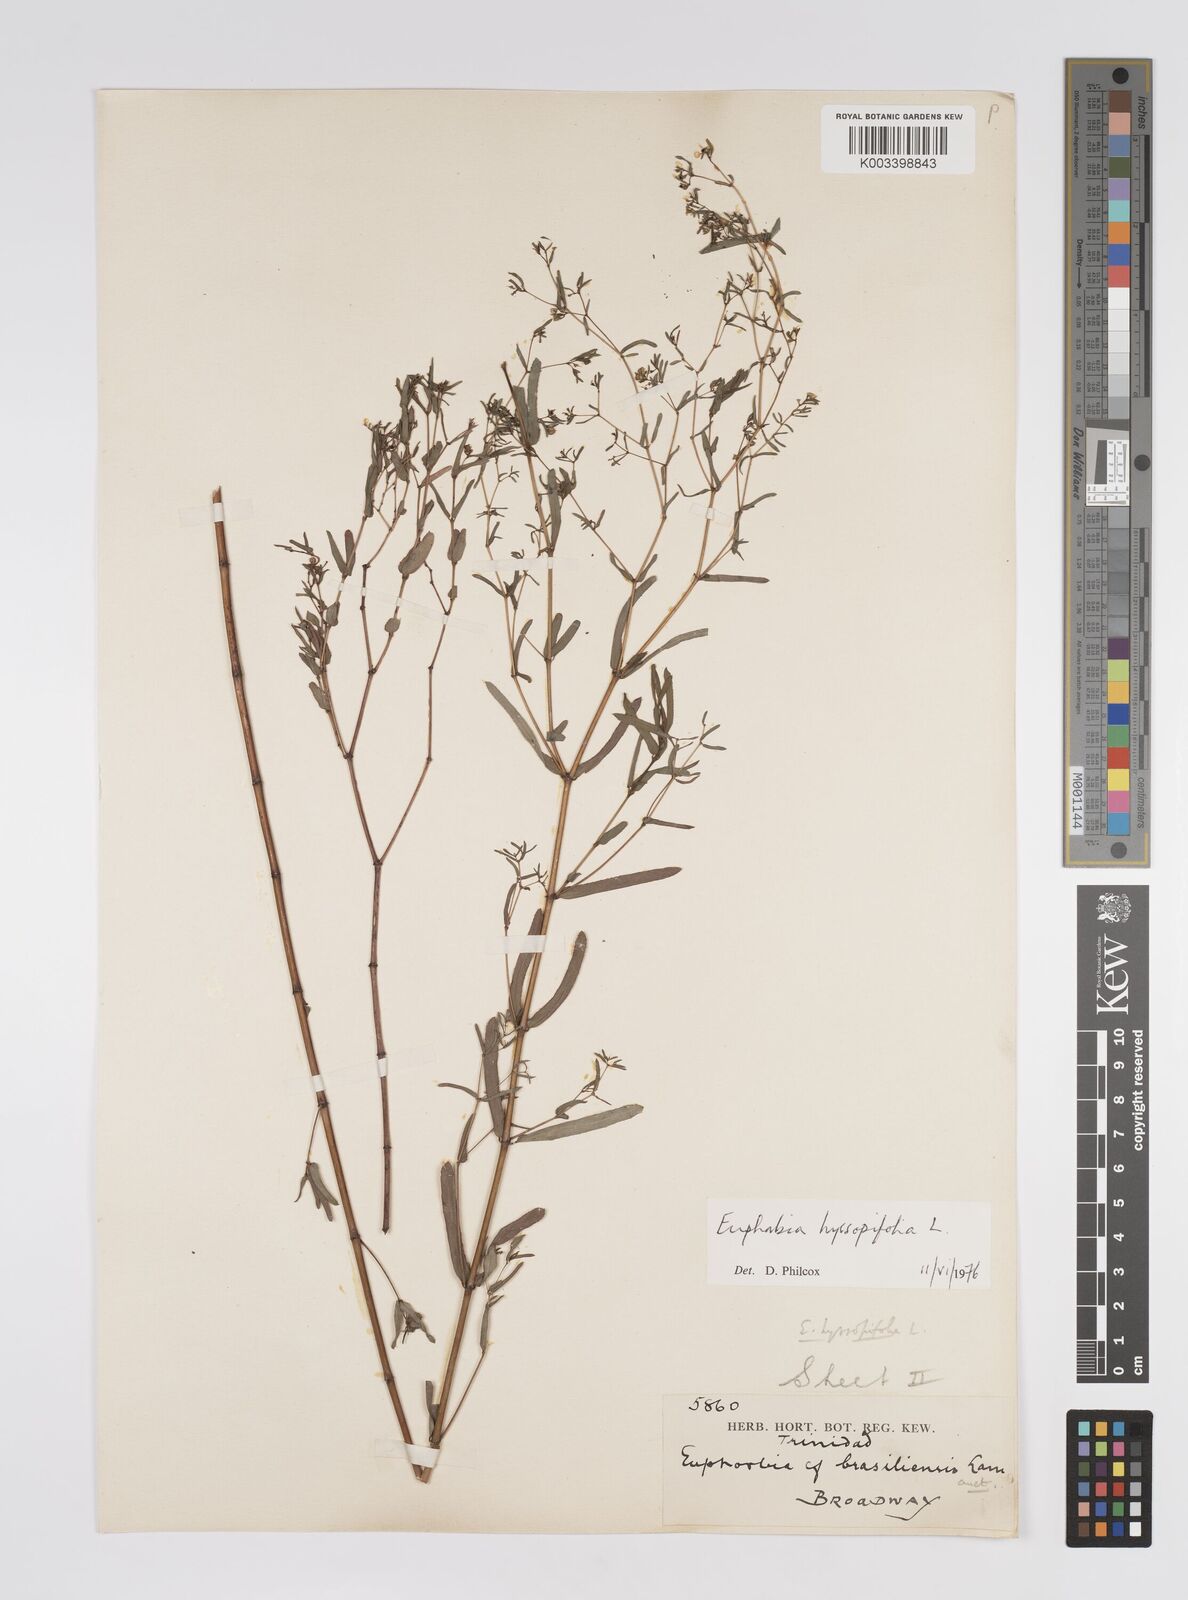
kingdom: Plantae
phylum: Tracheophyta
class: Magnoliopsida
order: Malpighiales
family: Euphorbiaceae
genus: Euphorbia
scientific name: Euphorbia hyssopifolia
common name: Hyssopleaf sandmat
